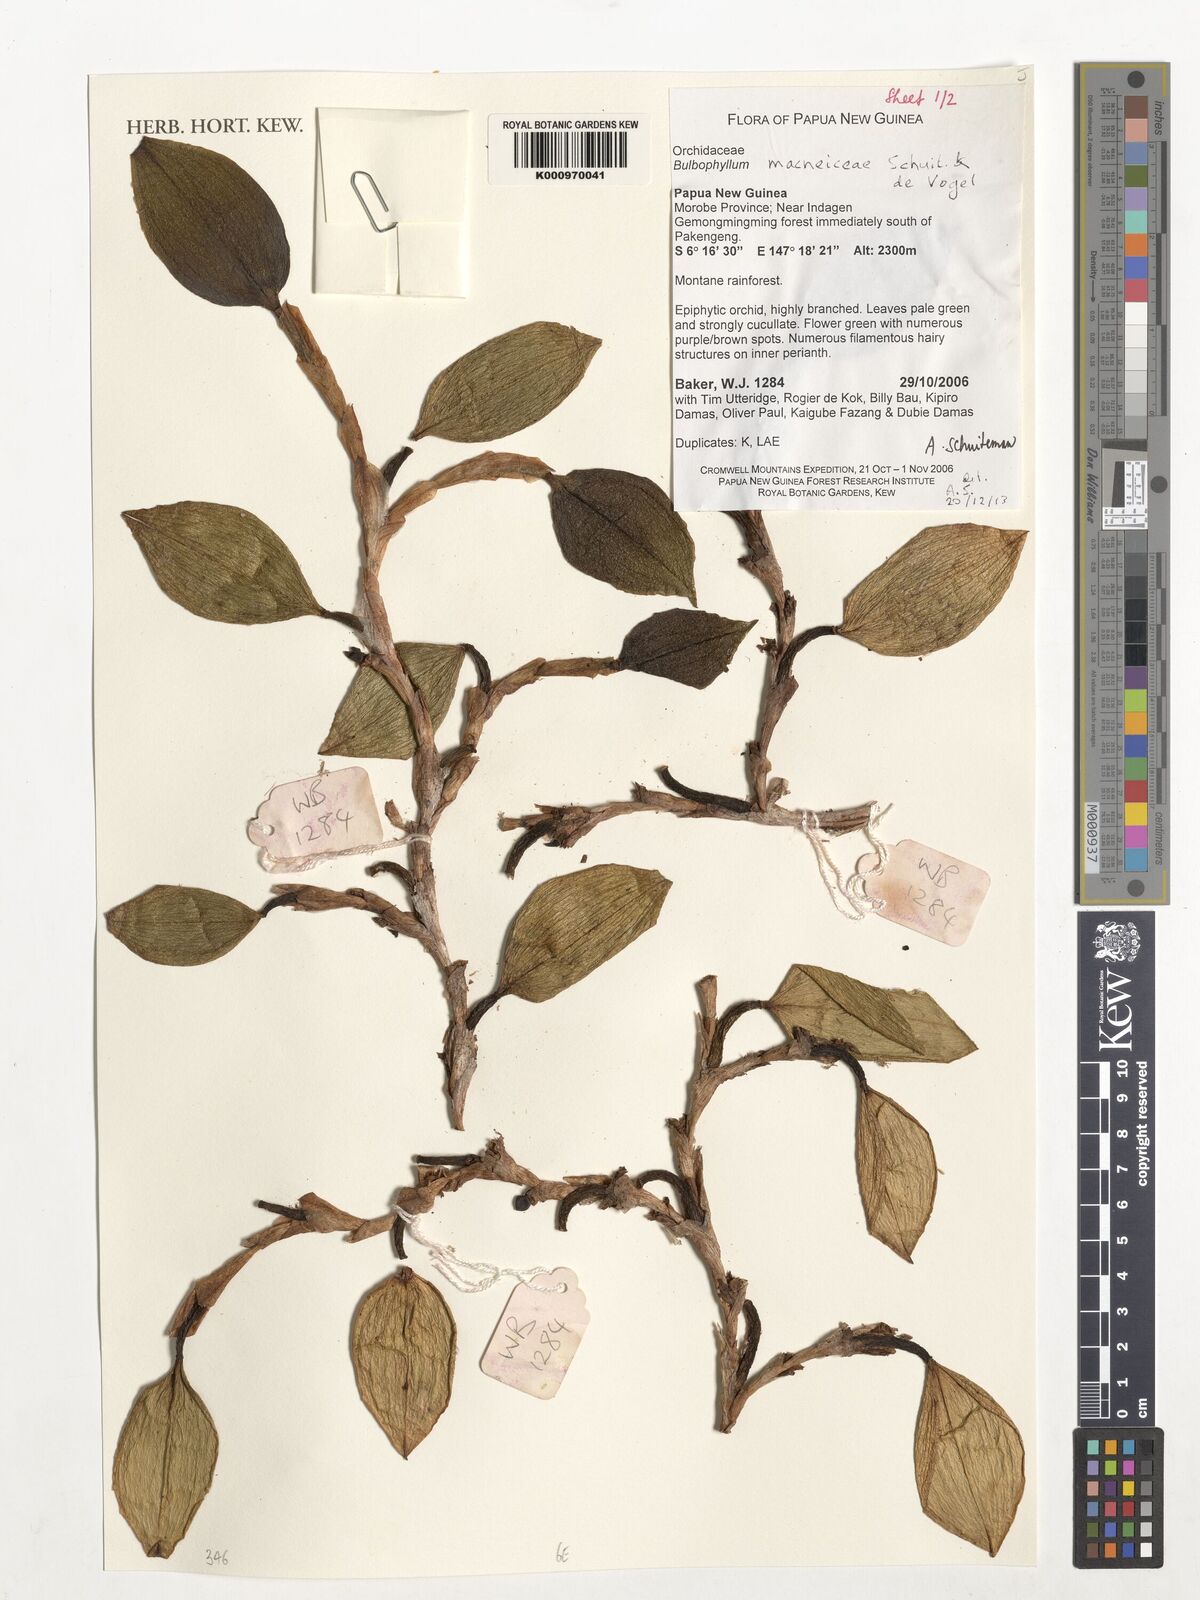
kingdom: Plantae
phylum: Tracheophyta
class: Liliopsida
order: Asparagales
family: Orchidaceae
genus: Bulbophyllum
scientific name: Bulbophyllum macneiceae
